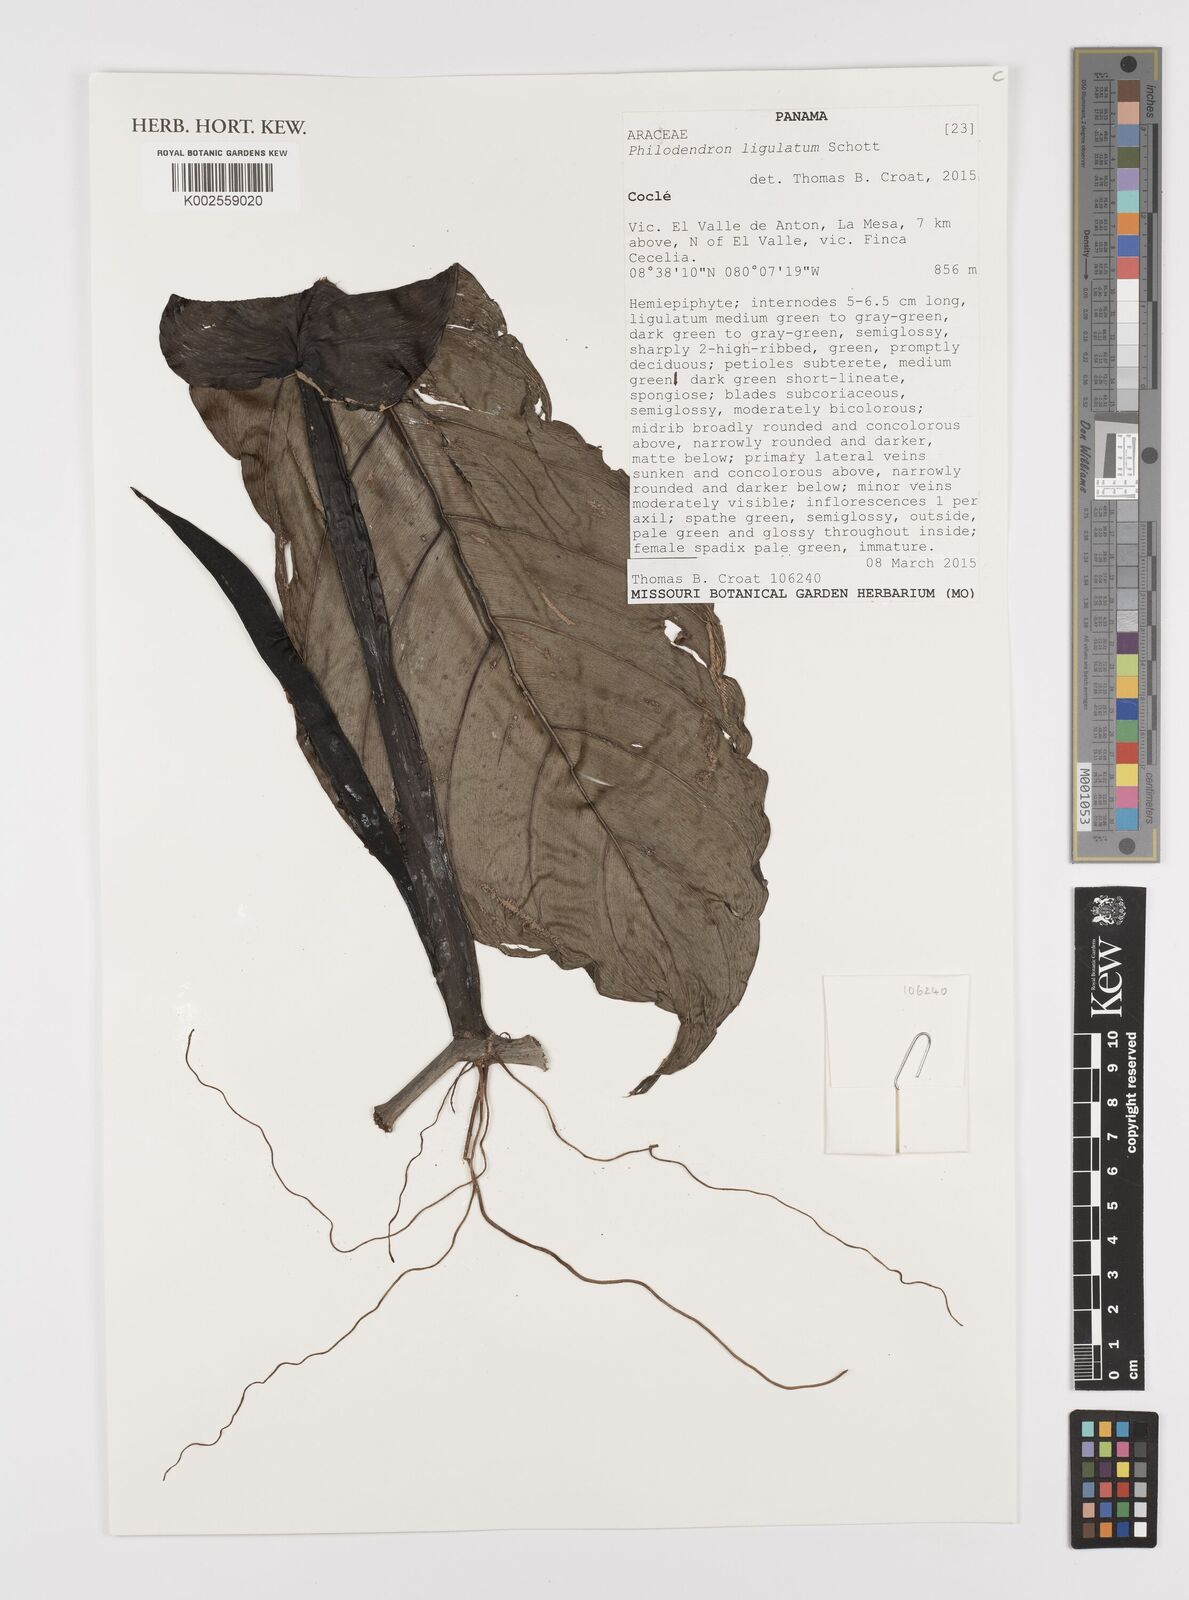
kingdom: Plantae
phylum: Tracheophyta
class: Liliopsida
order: Alismatales
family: Araceae
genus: Philodendron
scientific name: Philodendron ligulatum
